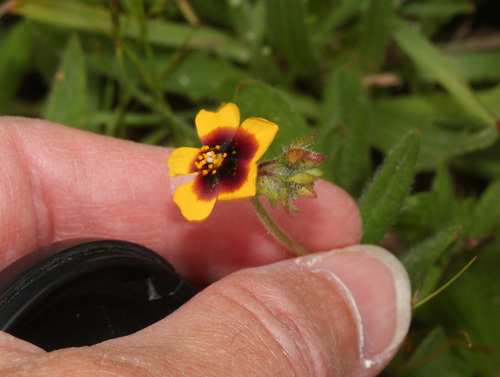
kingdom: Plantae
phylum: Tracheophyta
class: Magnoliopsida
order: Malvales
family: Cistaceae
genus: Tuberaria
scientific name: Tuberaria guttata
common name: Spotted rock-rose
